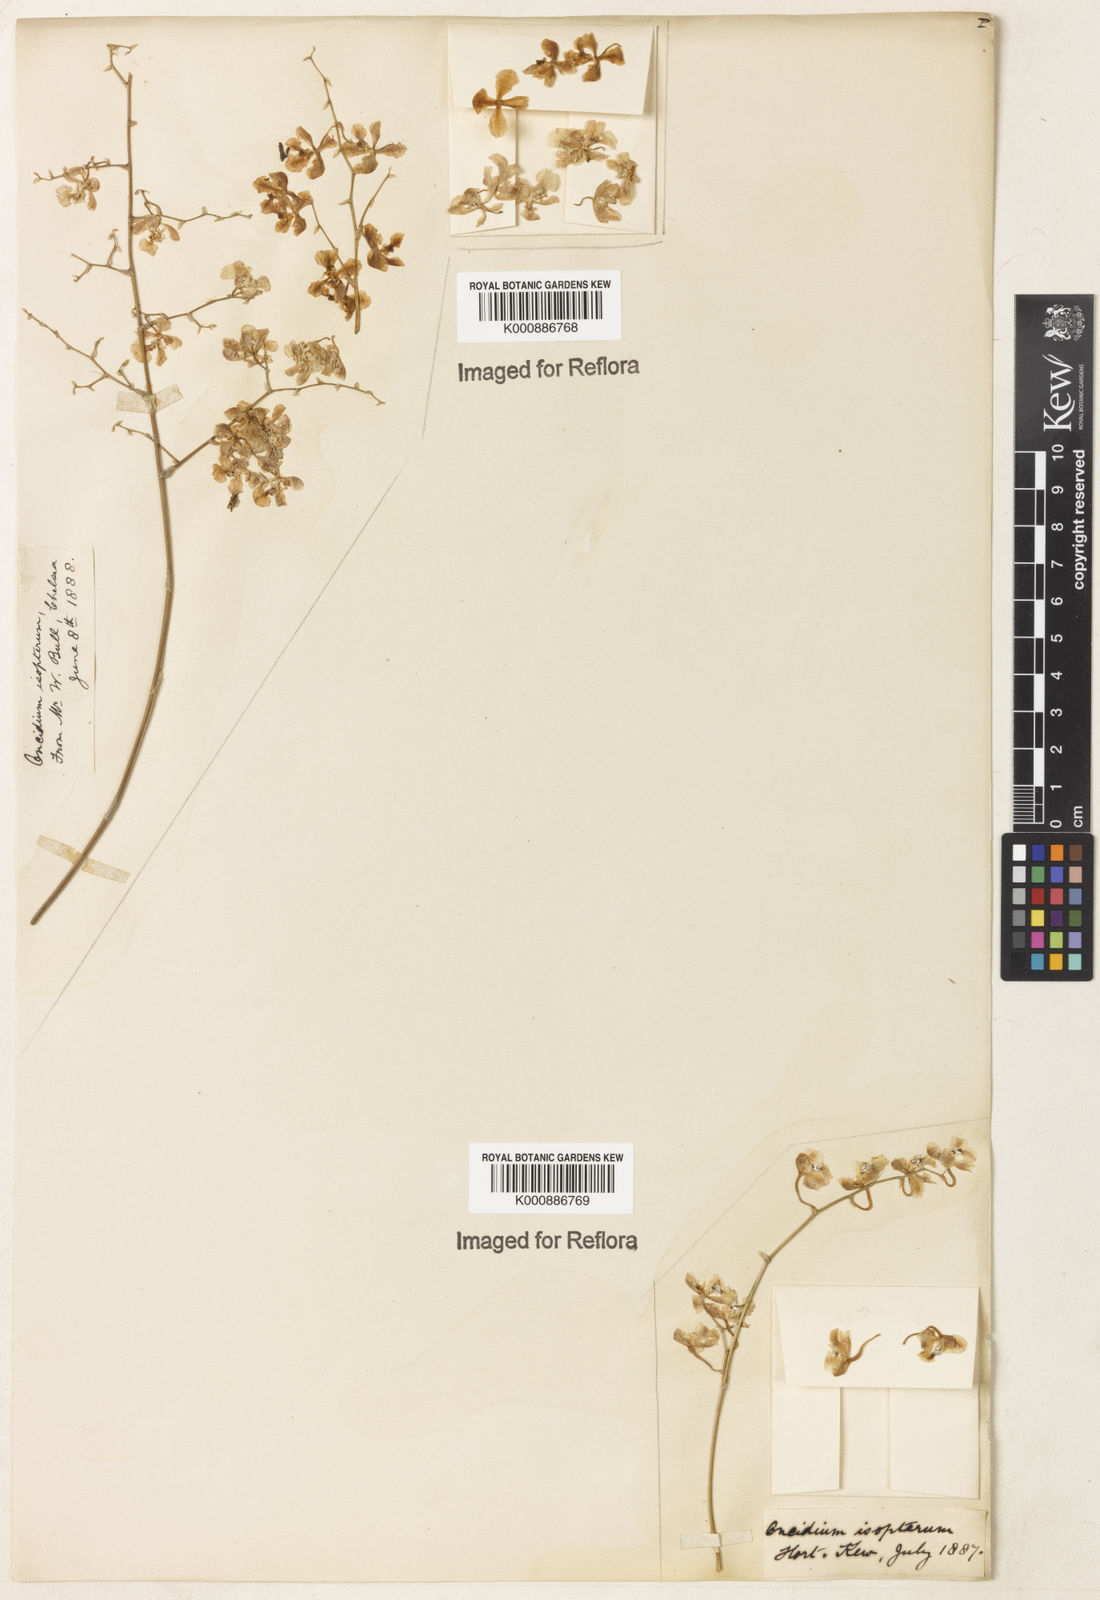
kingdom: Plantae
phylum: Tracheophyta
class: Liliopsida
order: Asparagales
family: Orchidaceae
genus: Gomesa
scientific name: Gomesa cornigera
